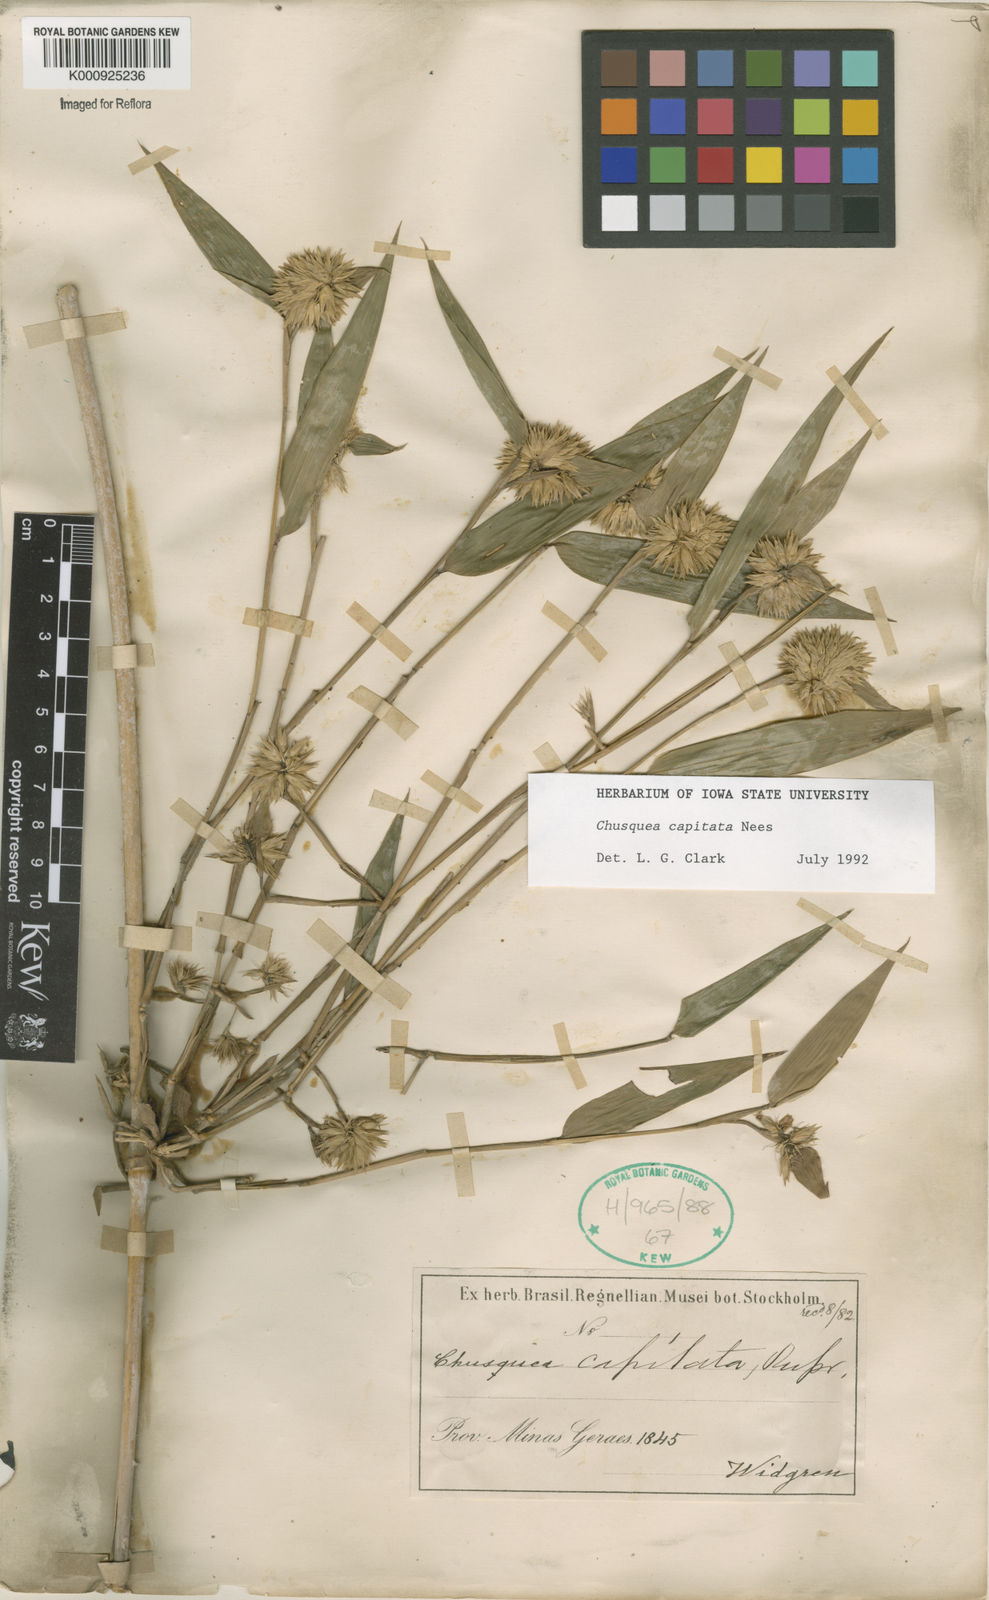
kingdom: Plantae
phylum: Tracheophyta
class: Liliopsida
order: Poales
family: Poaceae
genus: Chusquea
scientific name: Chusquea capitata
